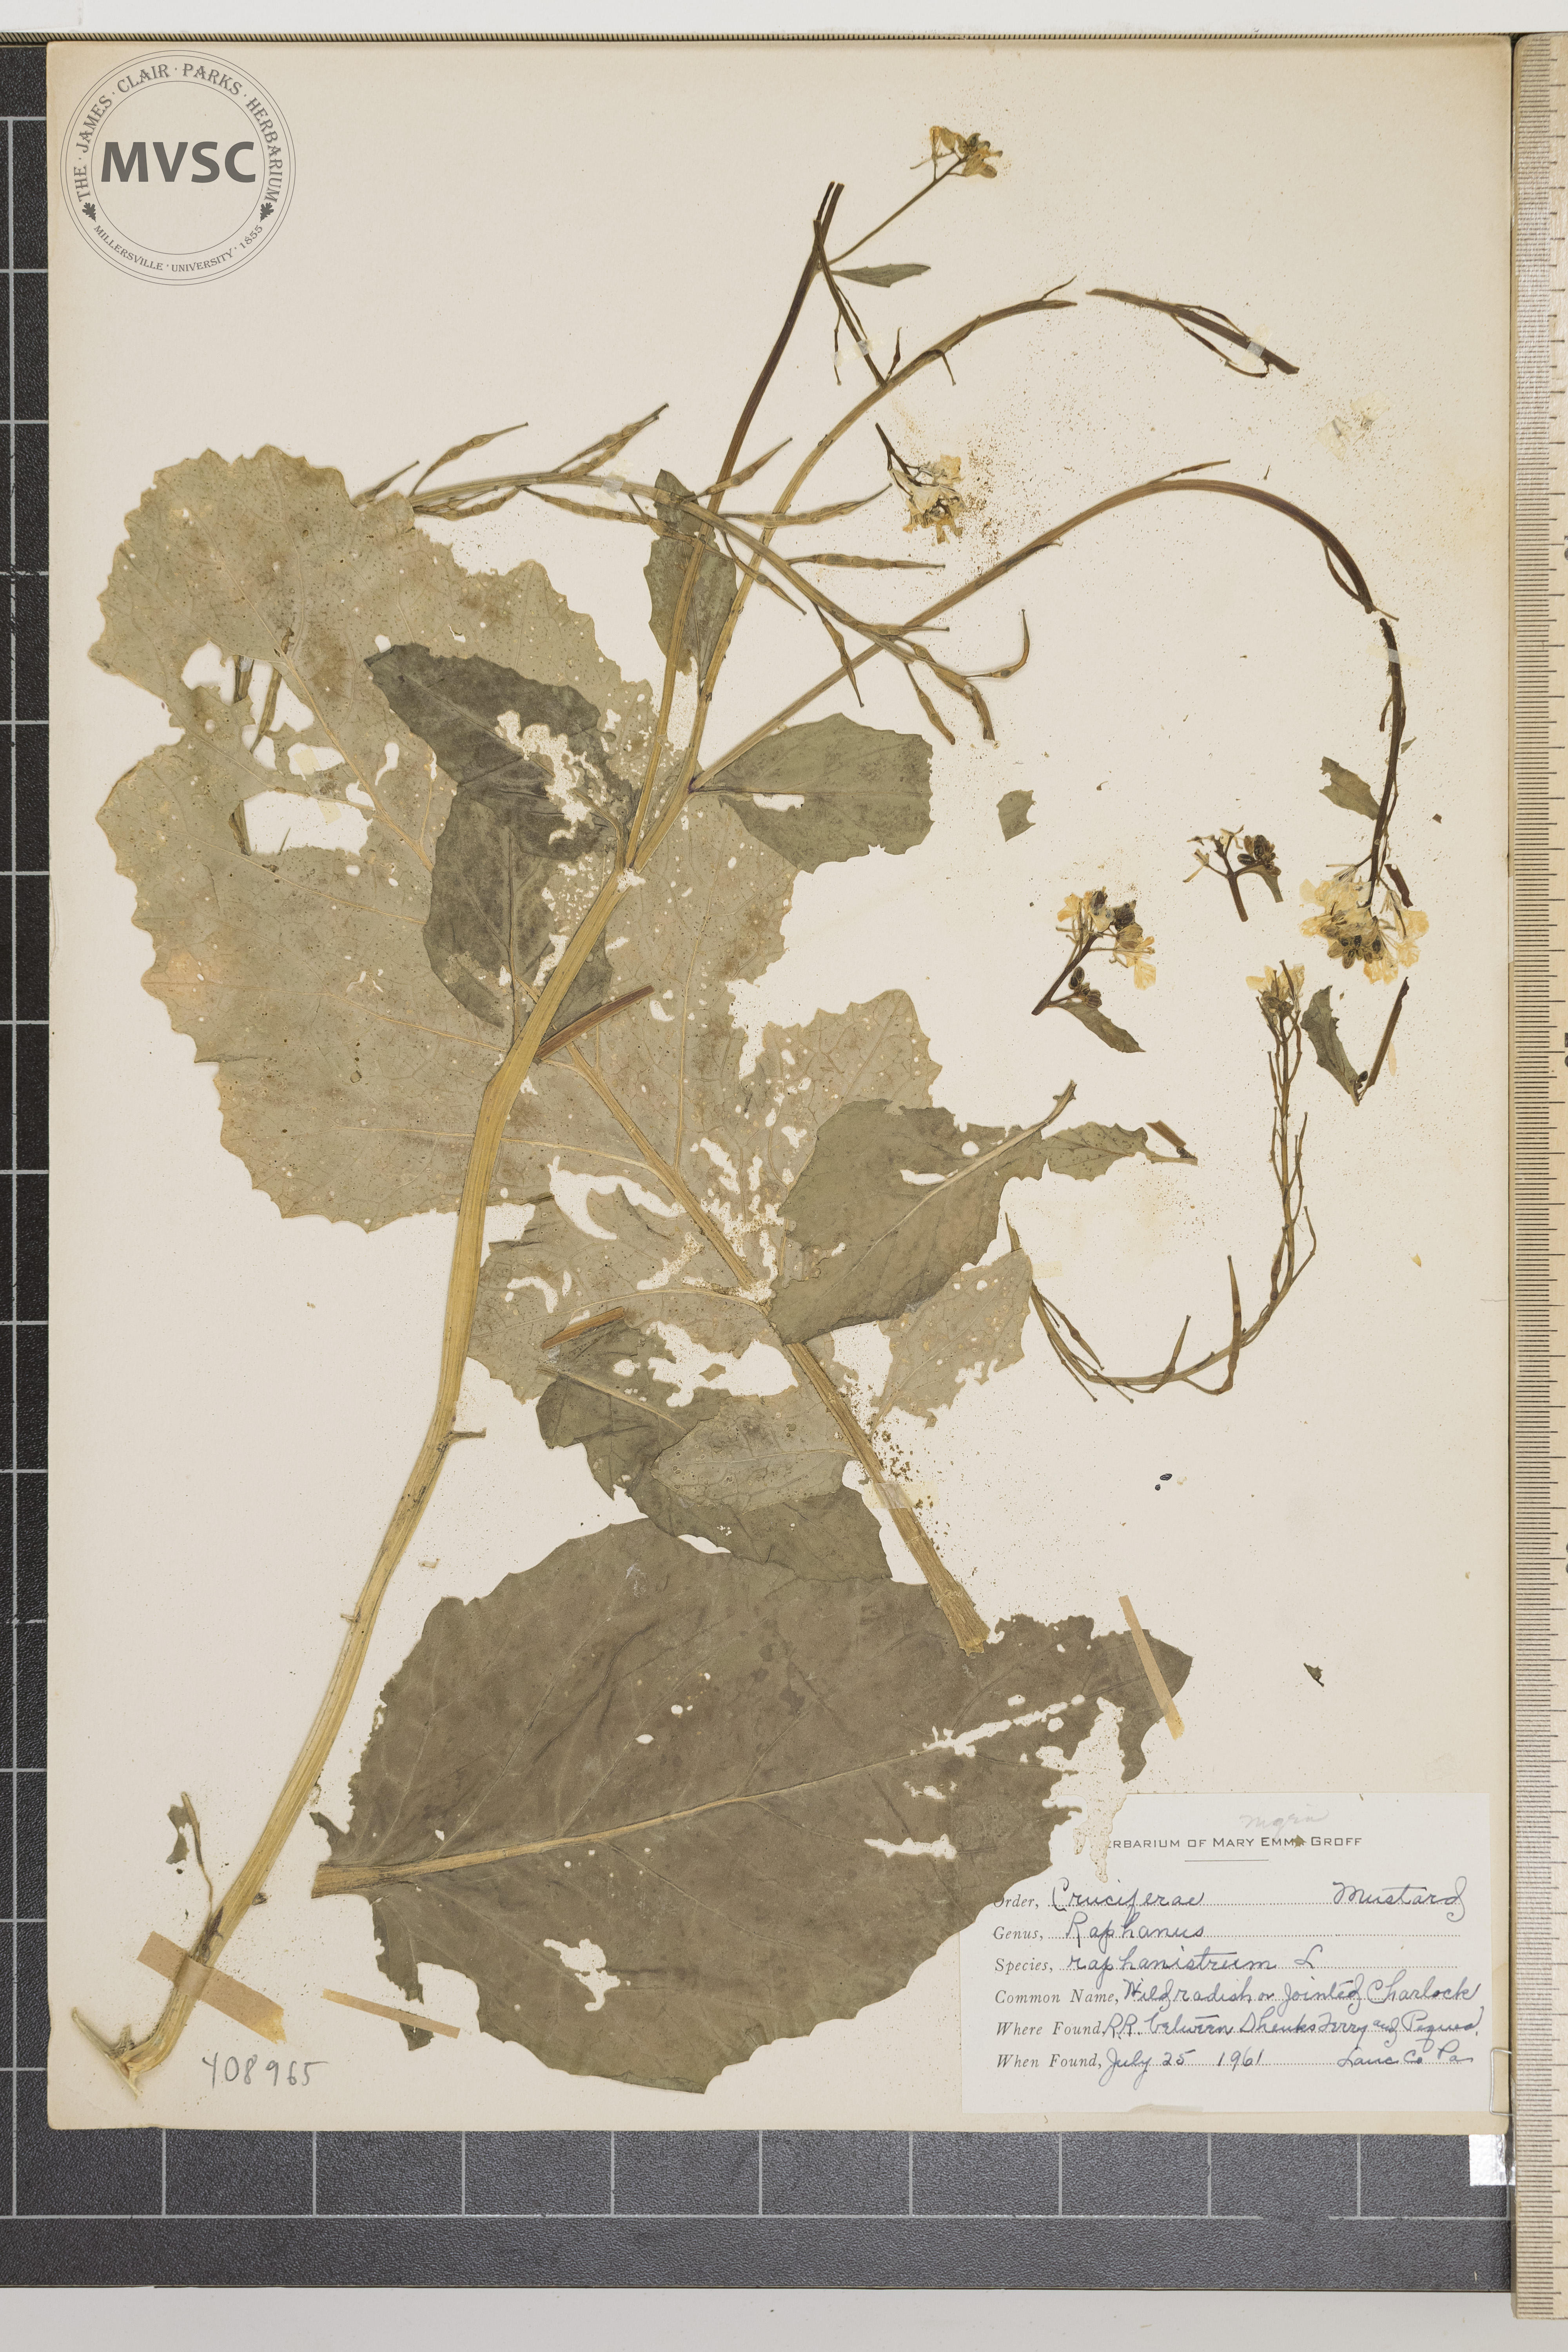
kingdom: Plantae
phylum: Tracheophyta
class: Magnoliopsida
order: Brassicales
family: Brassicaceae
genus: Raphanus
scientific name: Raphanus raphanistrum
